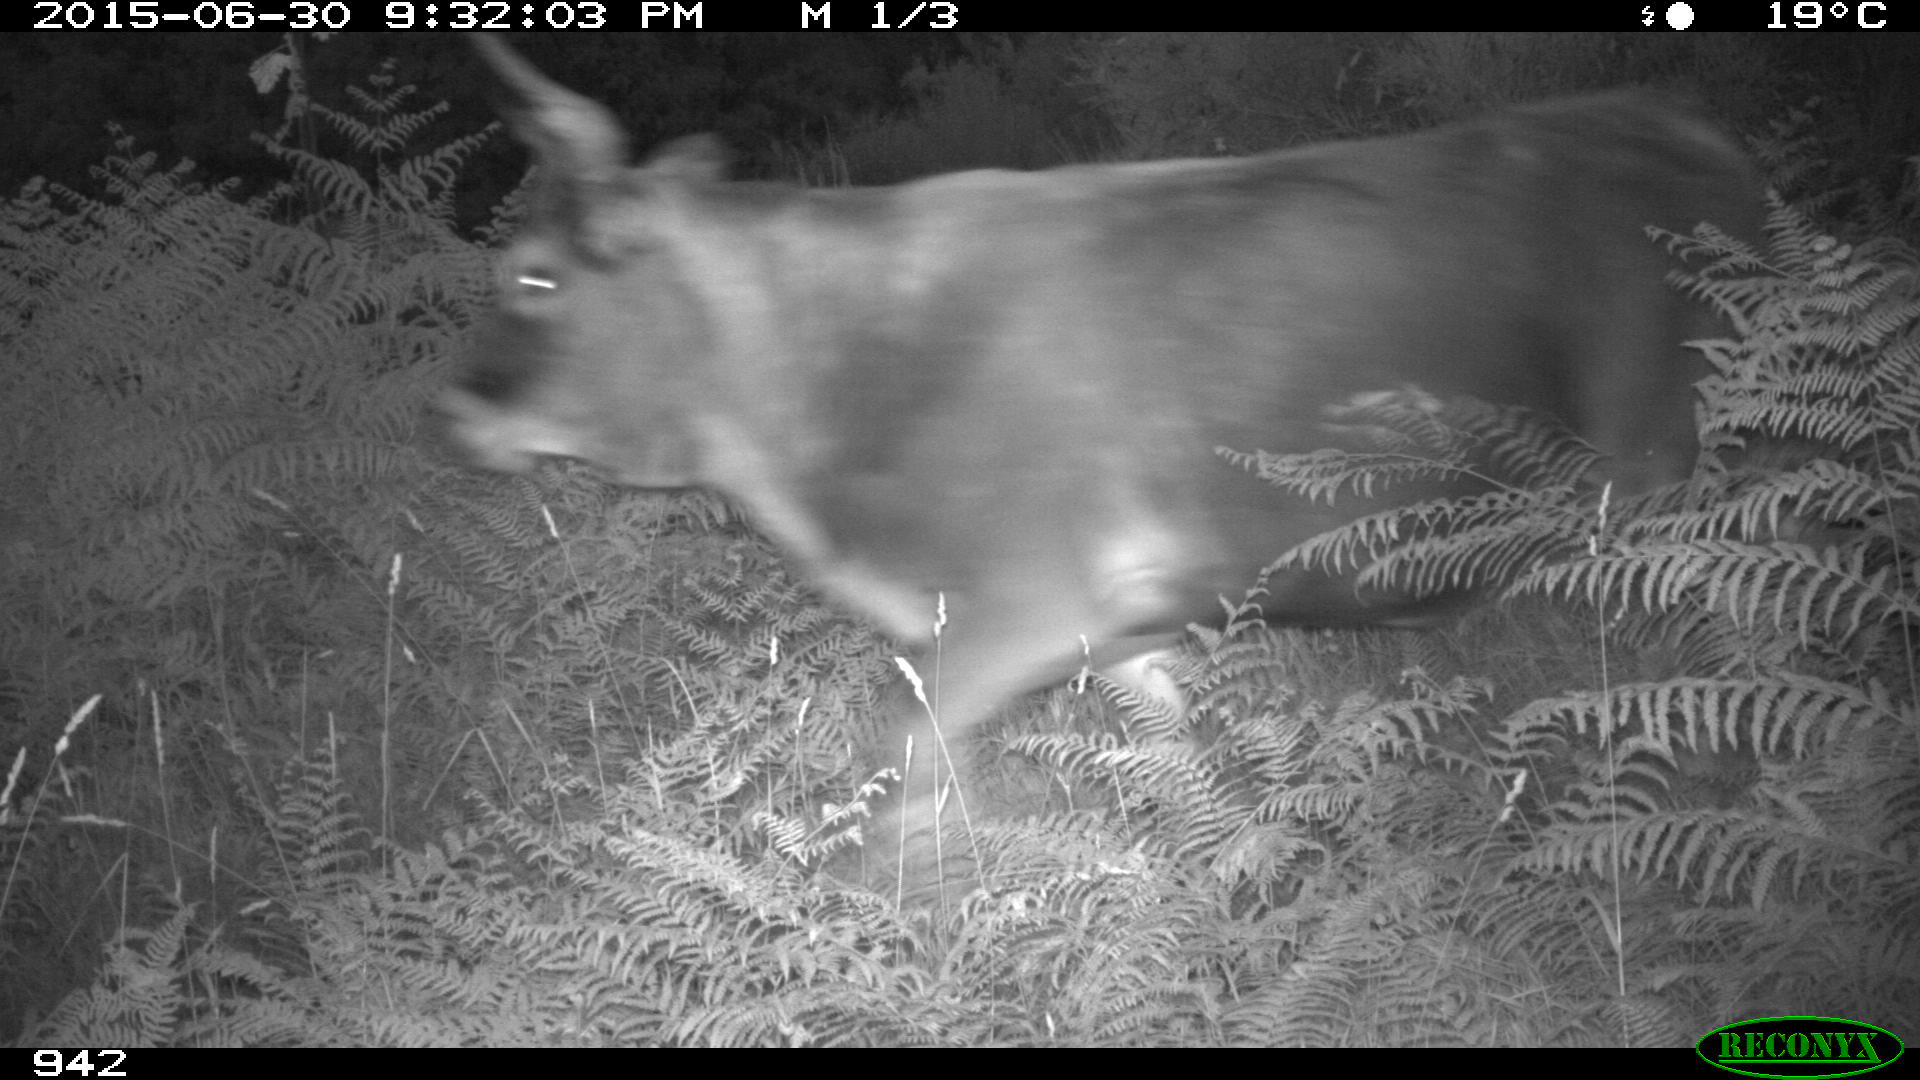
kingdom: Animalia
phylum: Chordata
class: Mammalia
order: Artiodactyla
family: Bovidae
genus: Bos
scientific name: Bos taurus
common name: Domesticated cattle
